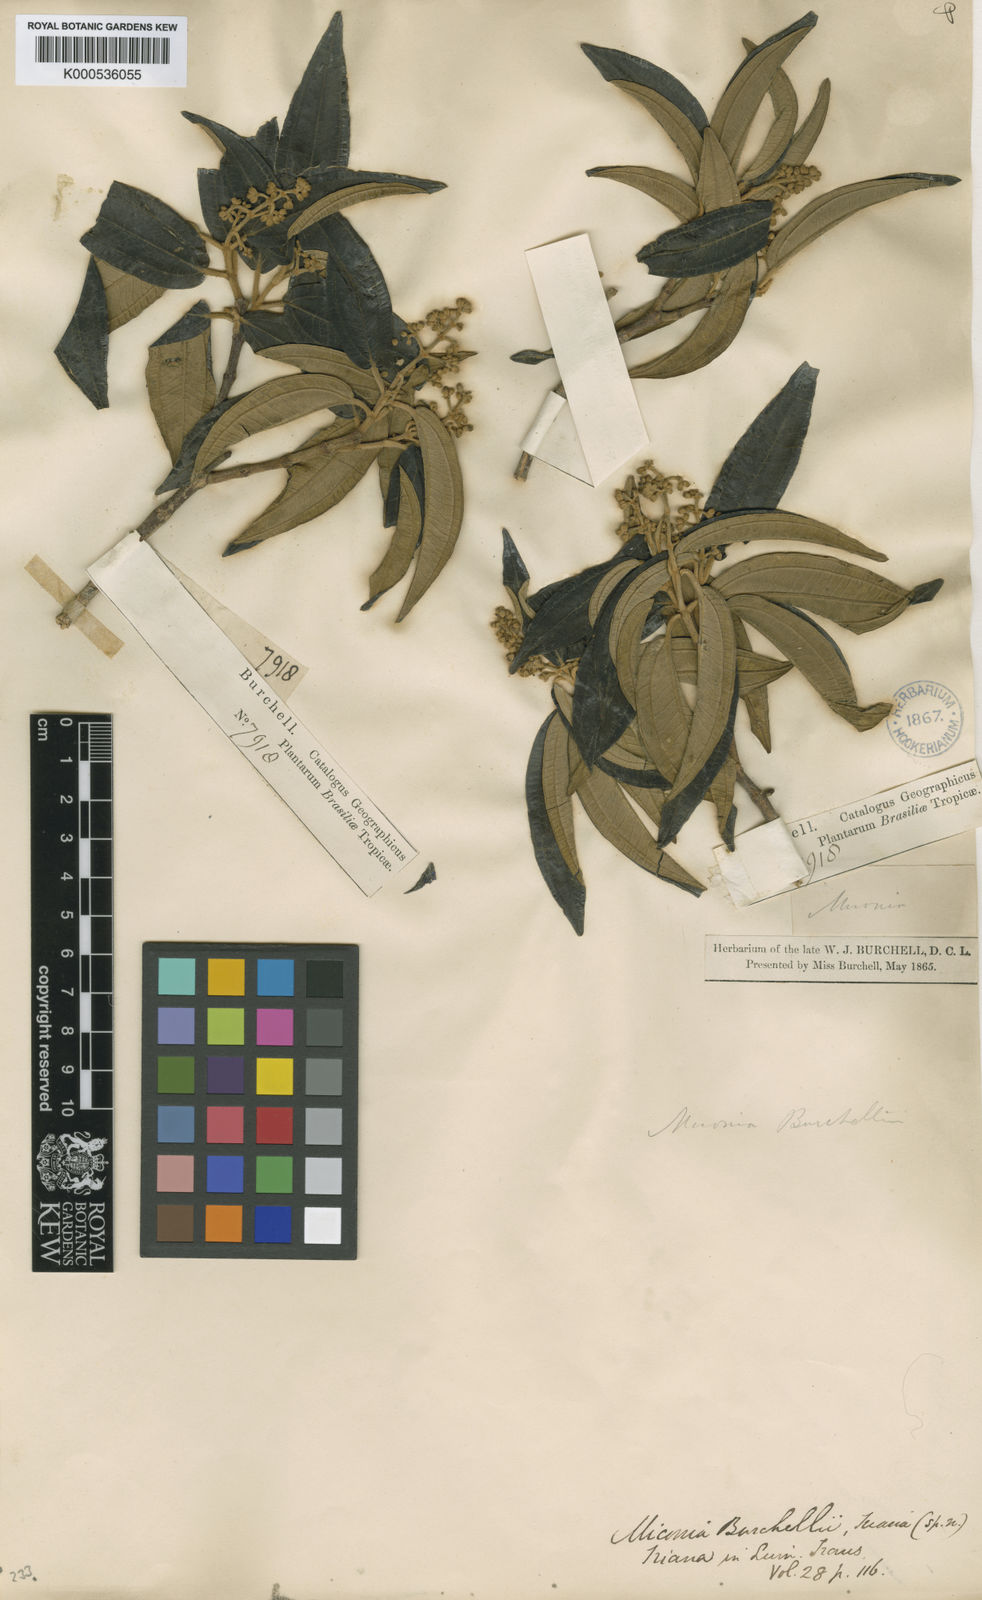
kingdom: Plantae
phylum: Tracheophyta
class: Magnoliopsida
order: Myrtales
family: Melastomataceae
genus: Miconia
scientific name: Miconia burchellii
